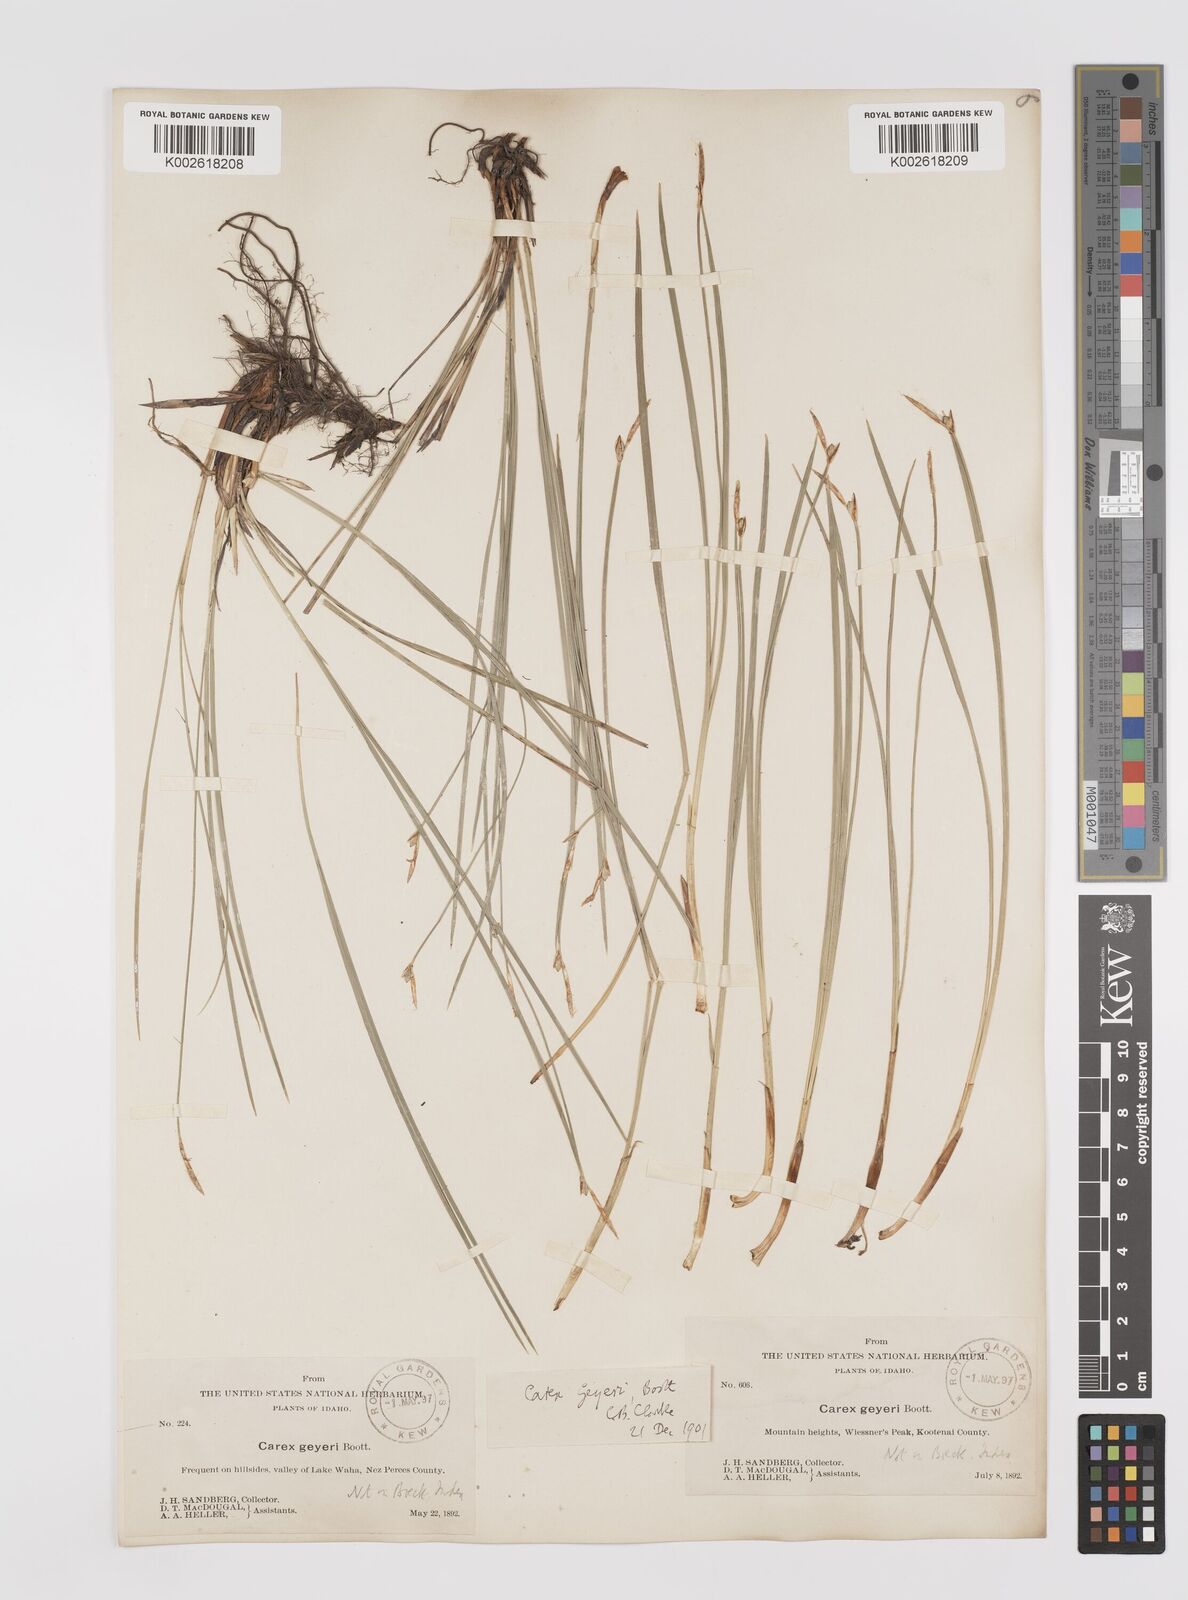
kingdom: Plantae
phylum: Tracheophyta
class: Liliopsida
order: Poales
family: Cyperaceae
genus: Carex
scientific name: Carex geyeri
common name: Elk sedge
